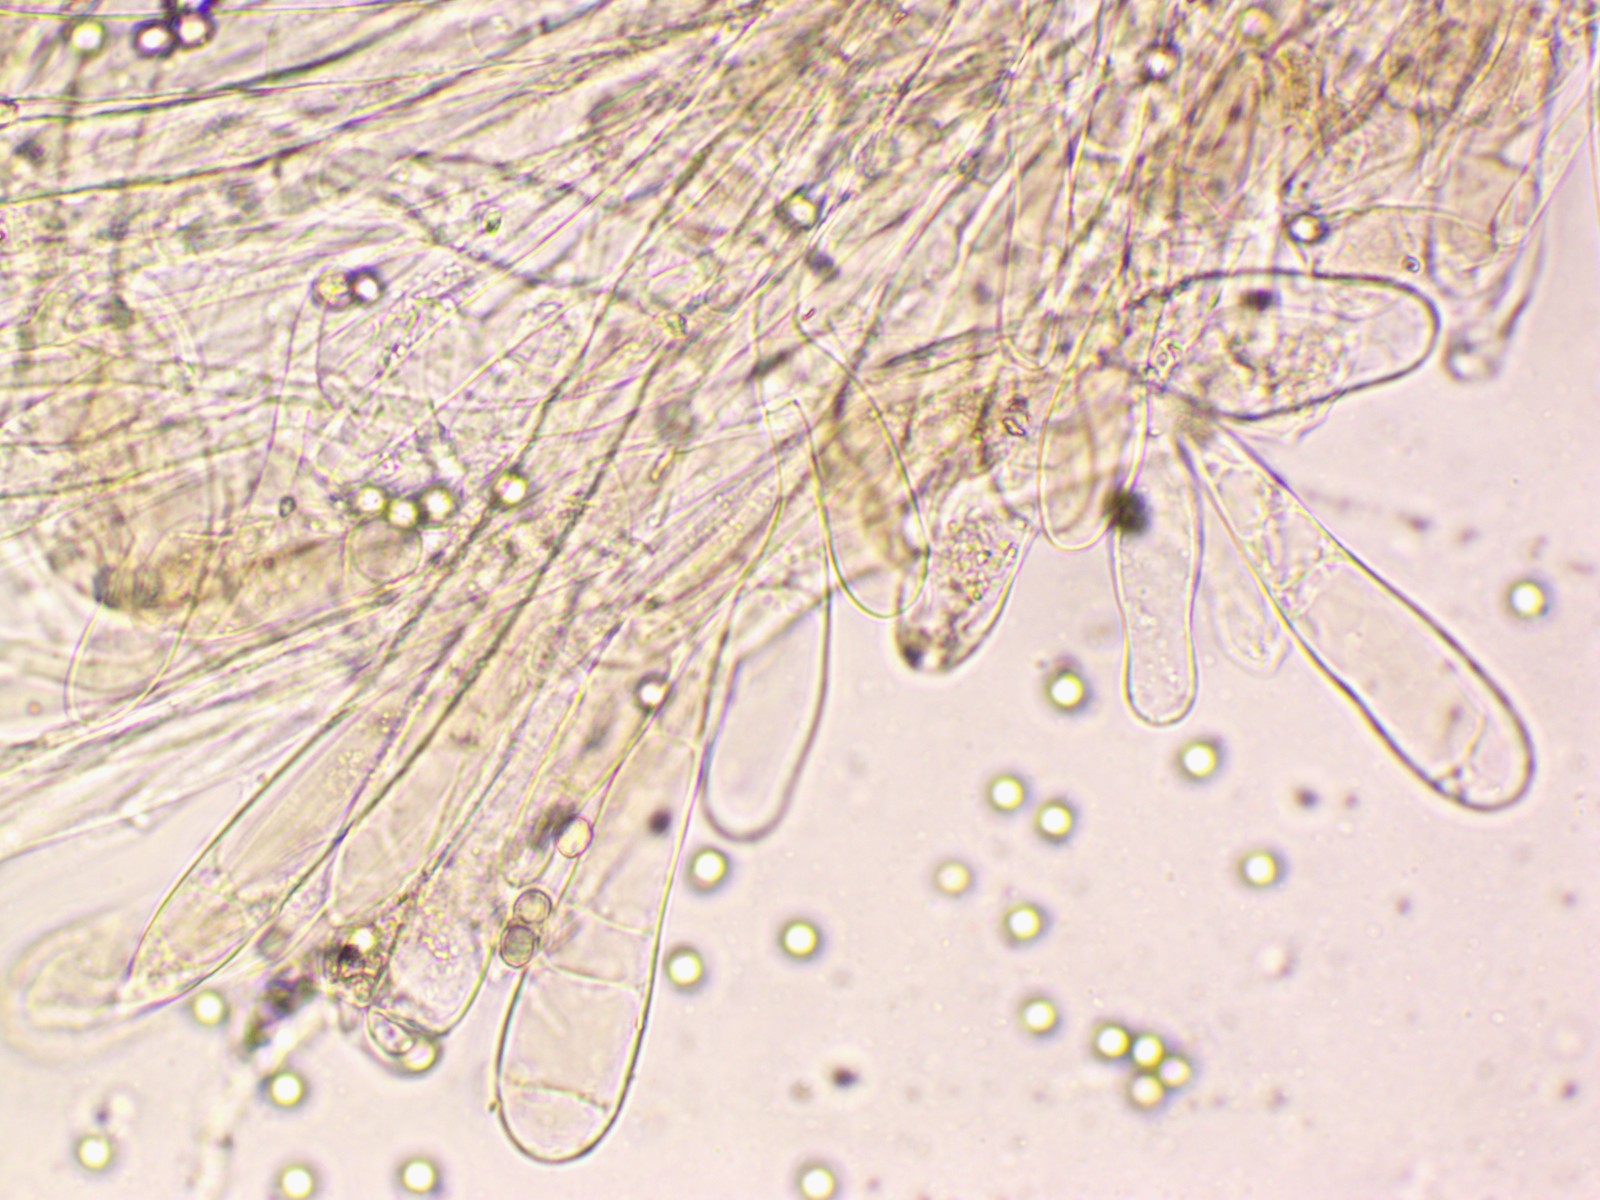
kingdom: Fungi
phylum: Basidiomycota
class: Agaricomycetes
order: Agaricales
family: Pluteaceae
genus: Pluteus
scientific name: Pluteus
